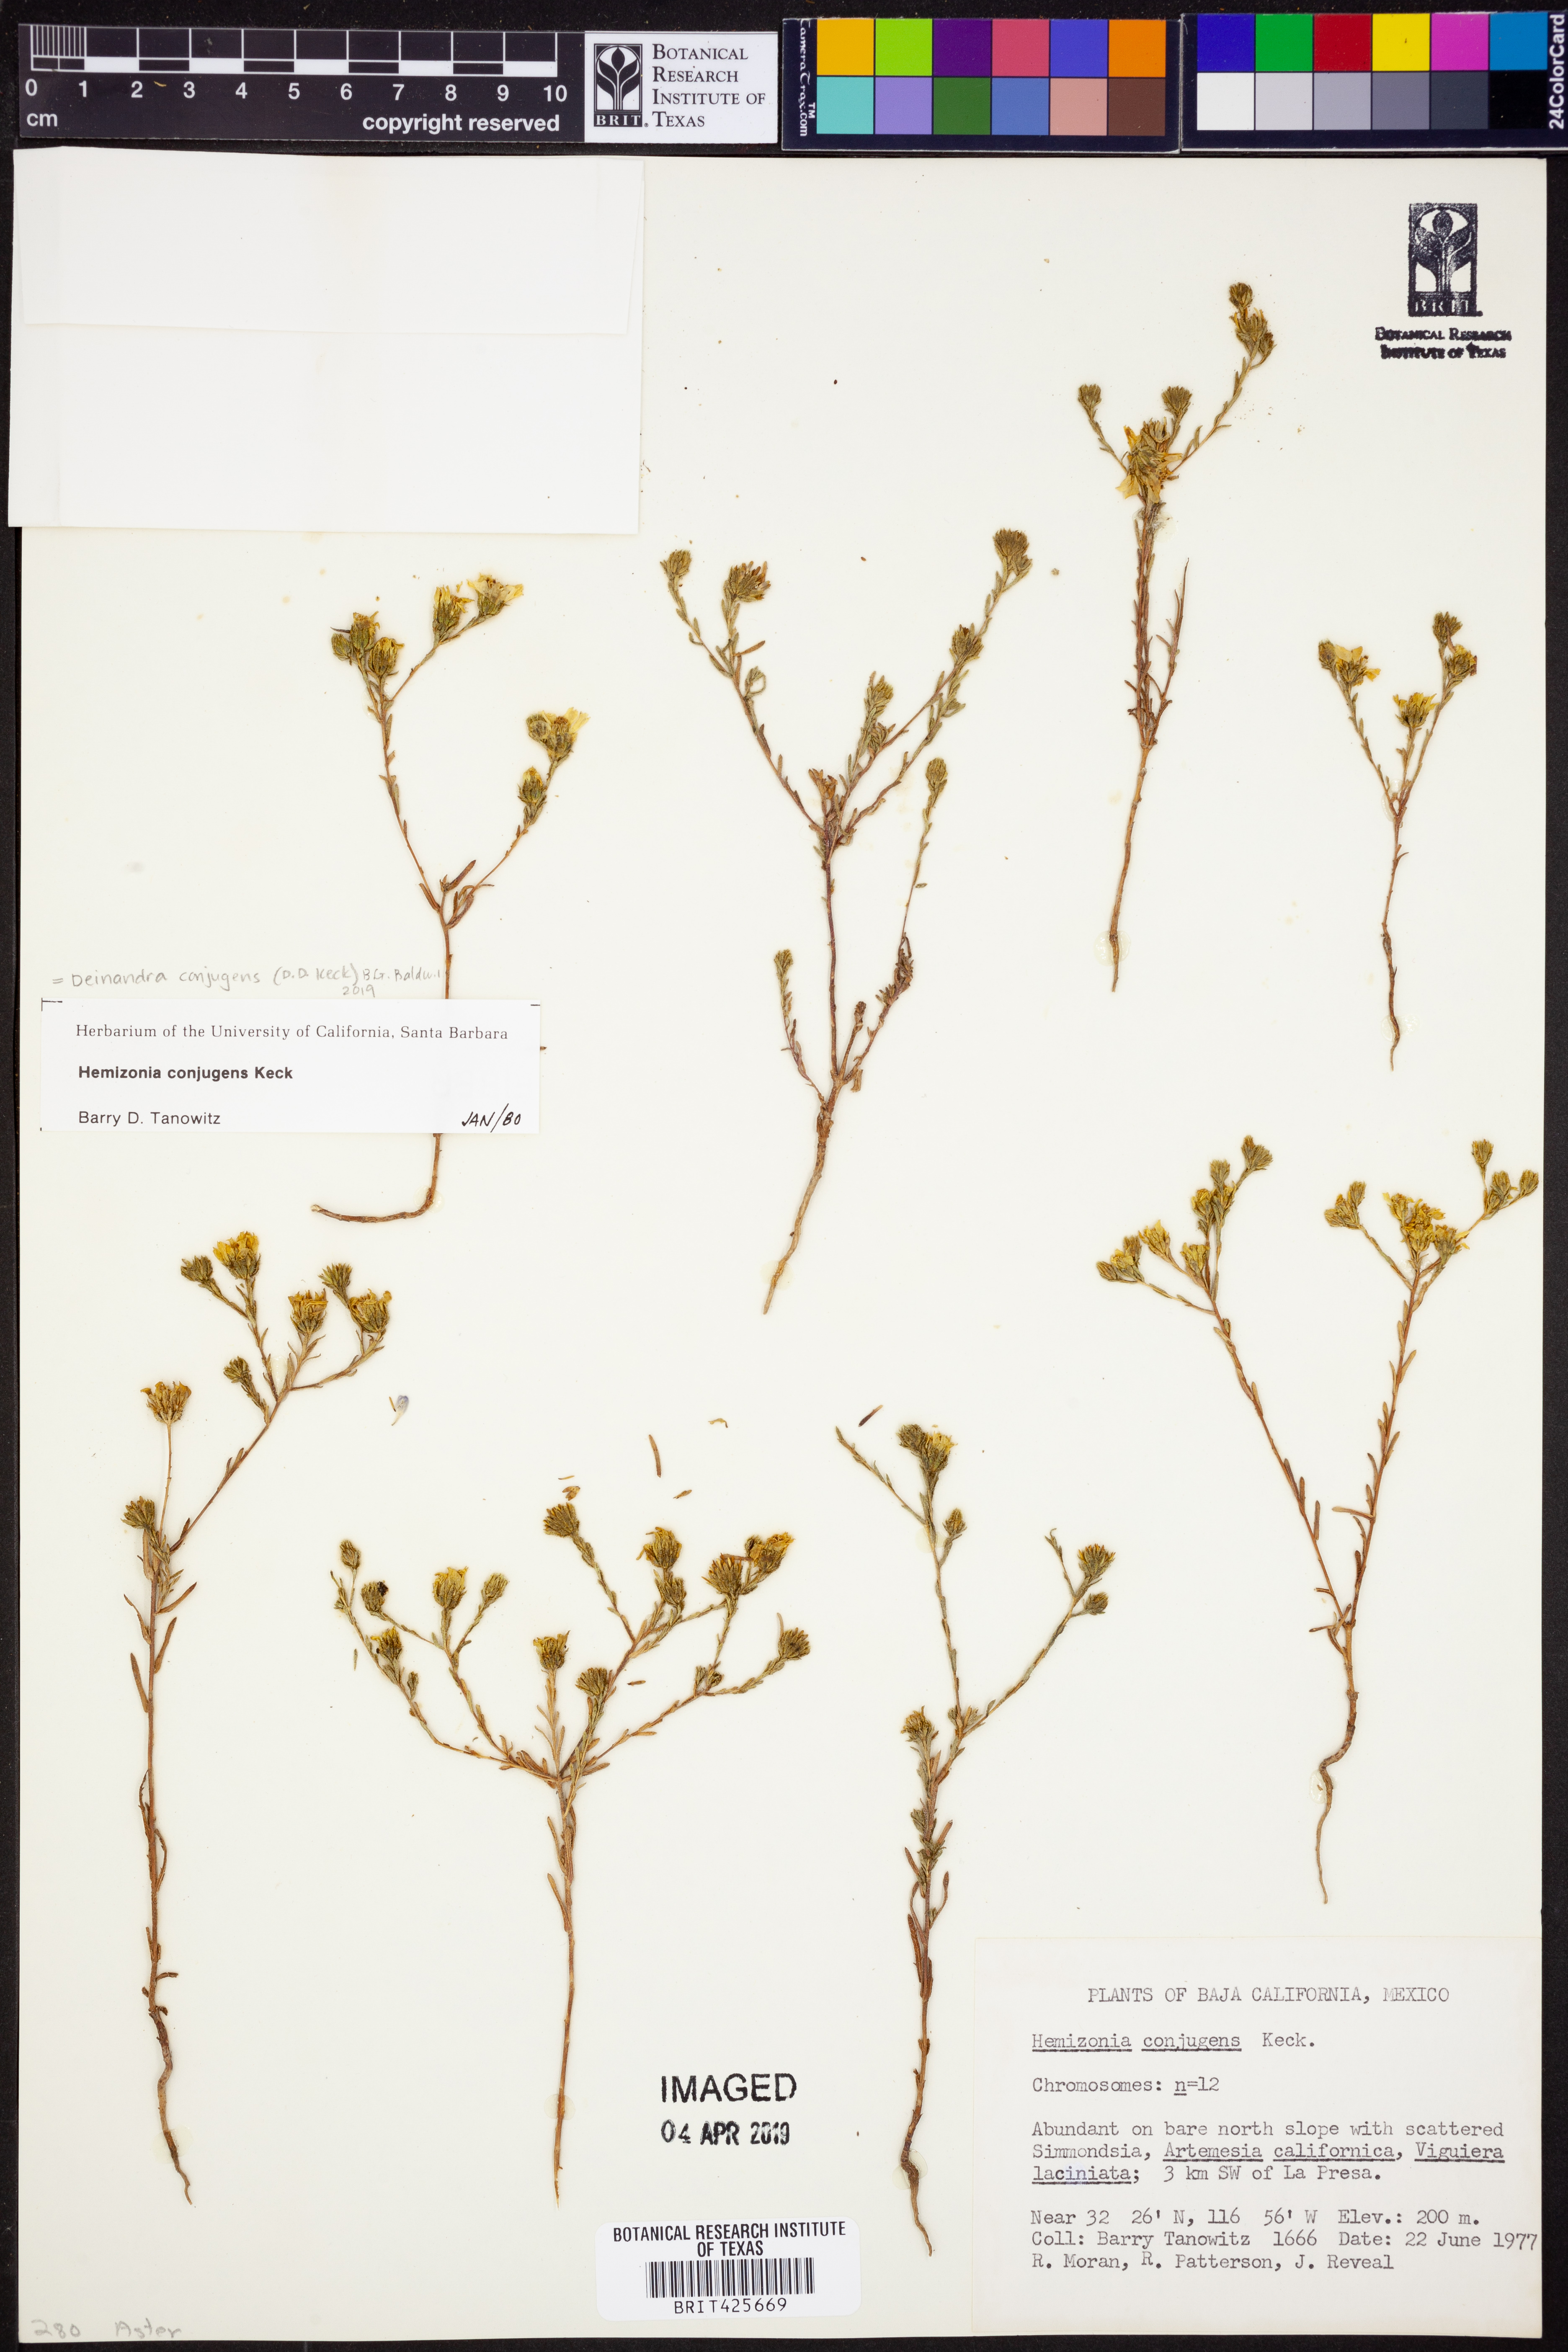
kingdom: Plantae
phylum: Tracheophyta
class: Magnoliopsida
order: Asterales
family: Asteraceae
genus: Deinandra
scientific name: Deinandra conjugens
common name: Otay tarplant
